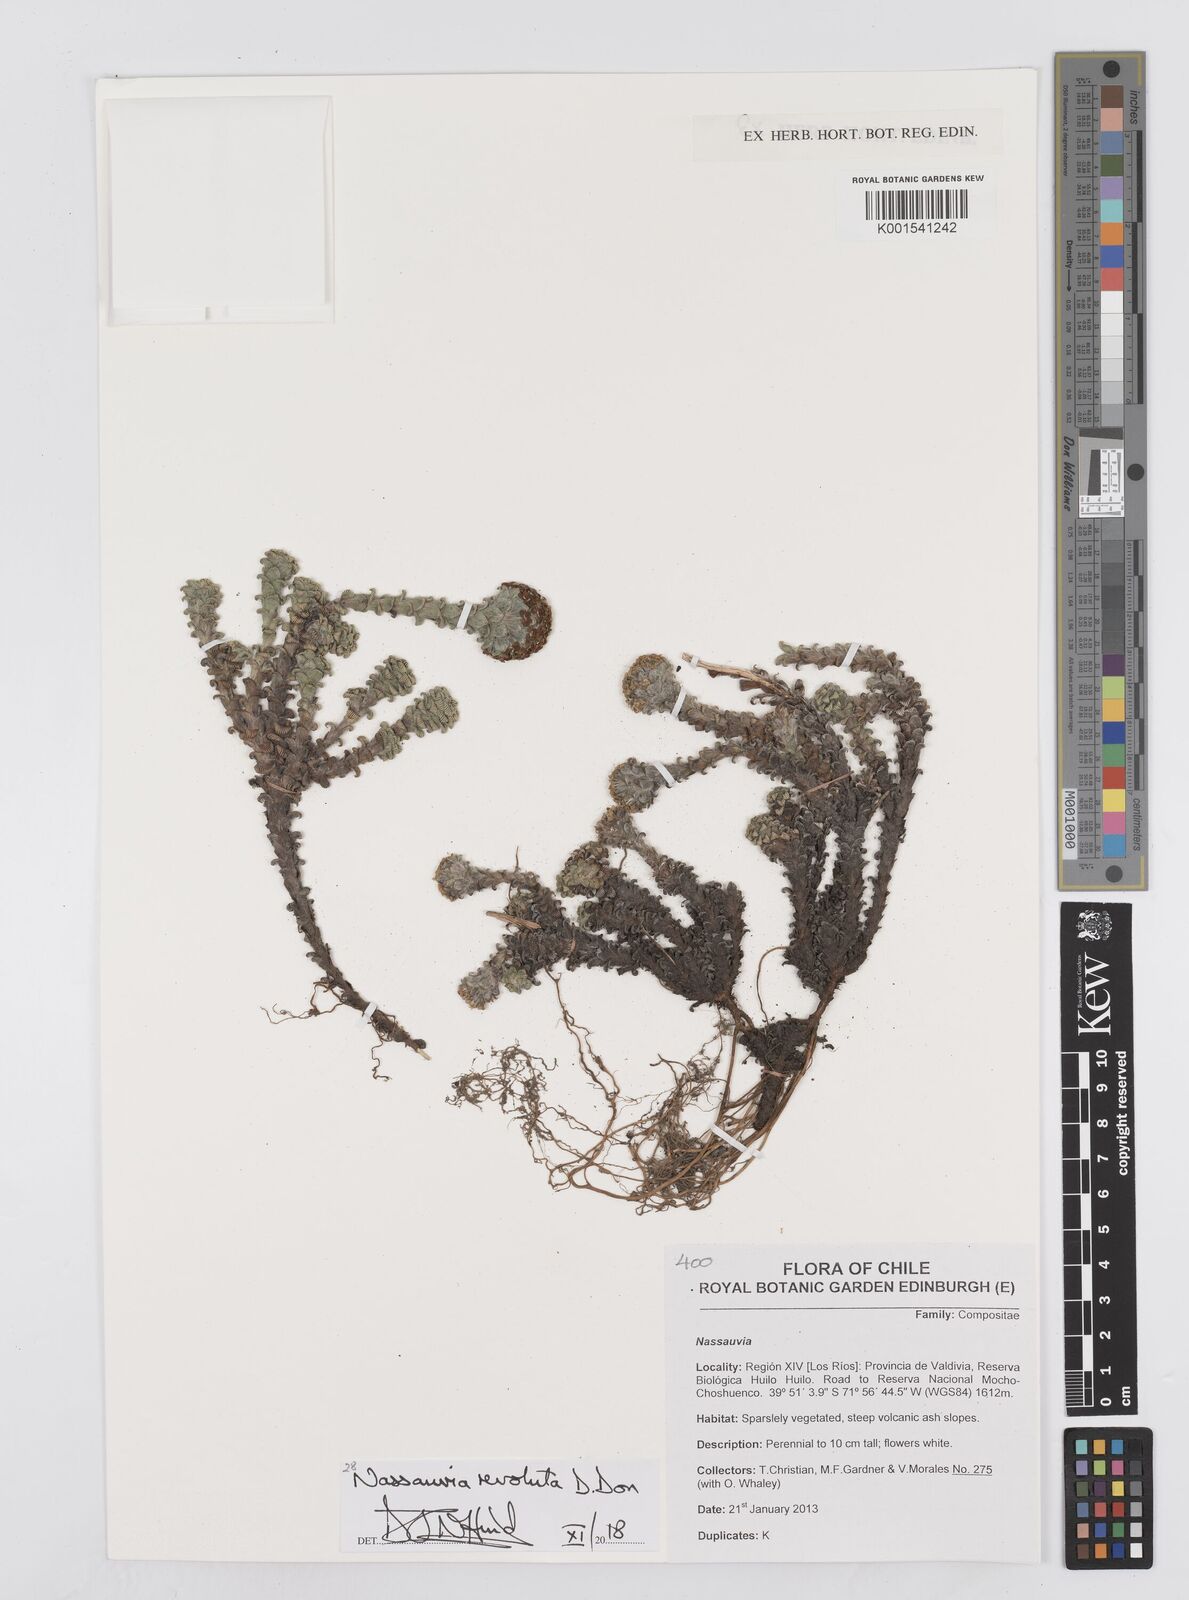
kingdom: Plantae
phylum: Tracheophyta
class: Magnoliopsida
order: Asterales
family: Asteraceae
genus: Nassauvia
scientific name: Nassauvia revoluta
